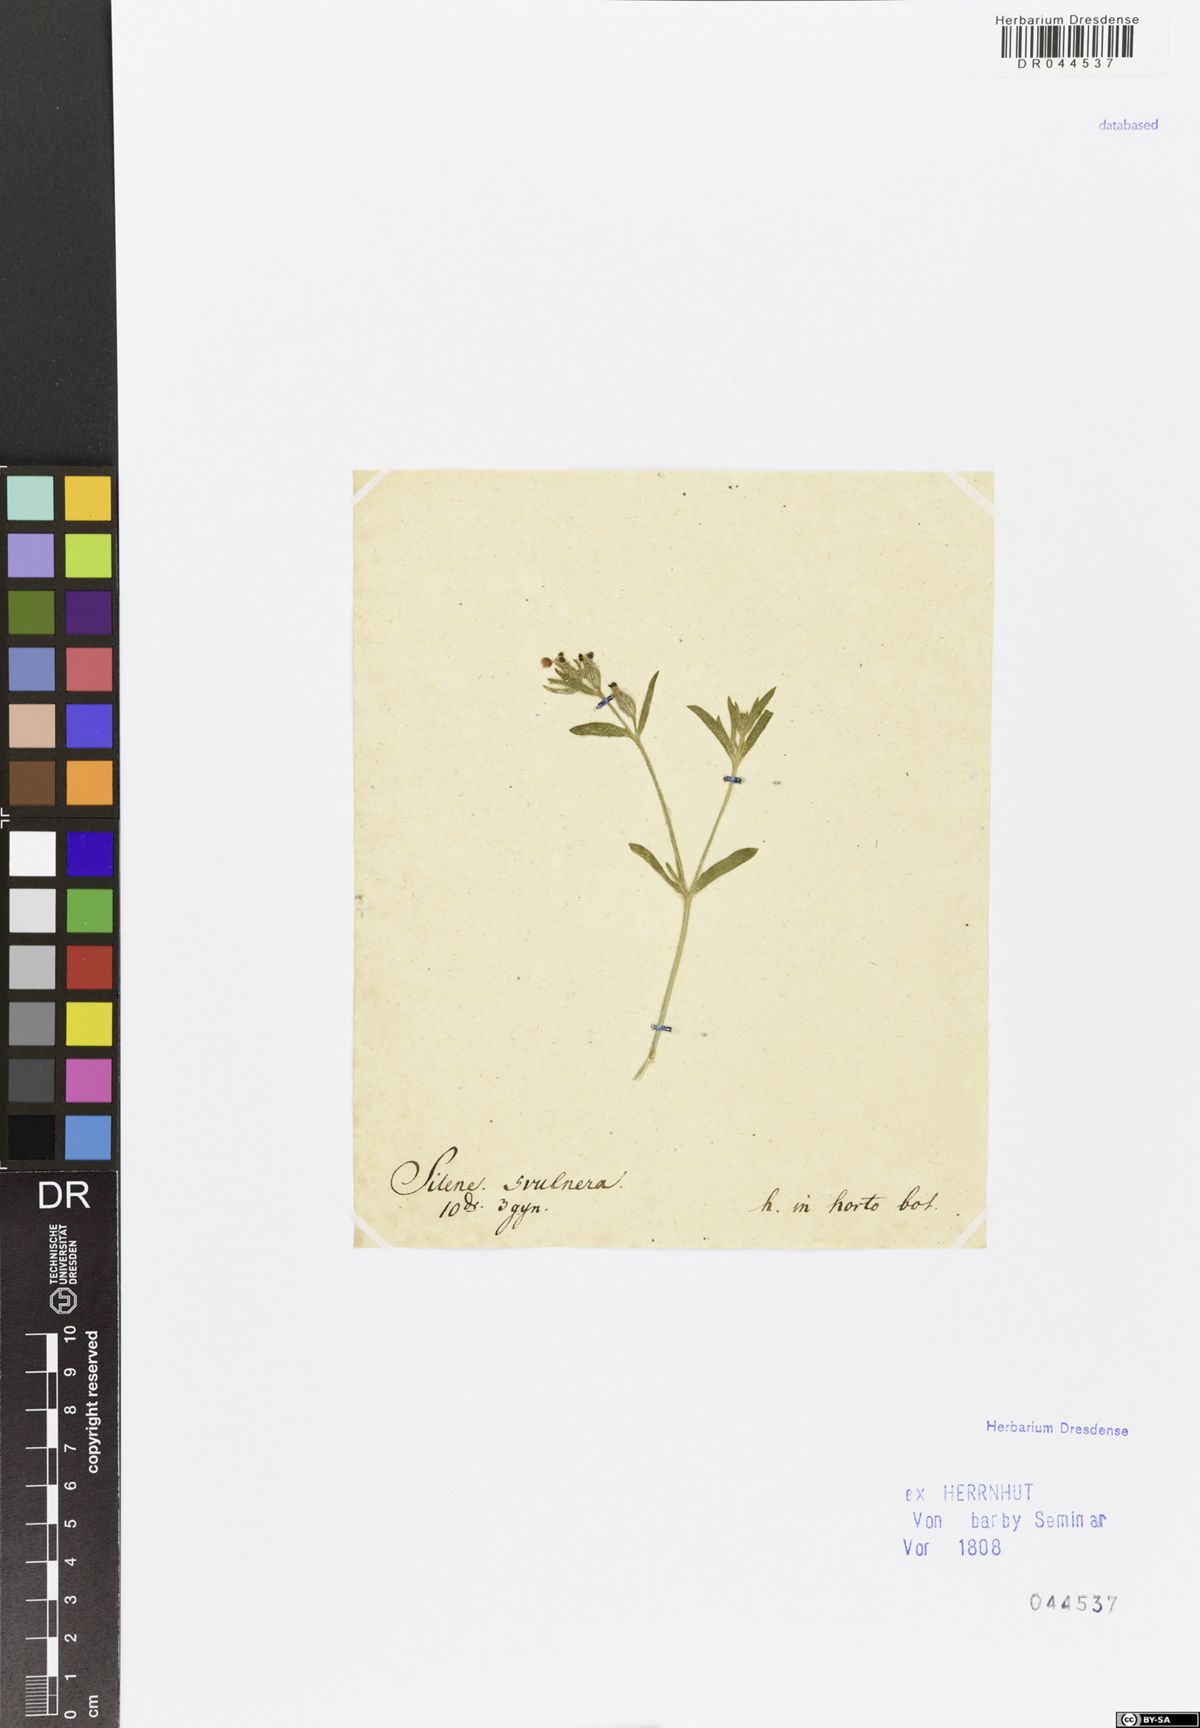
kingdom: Plantae
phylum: Tracheophyta
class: Magnoliopsida
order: Caryophyllales
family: Caryophyllaceae
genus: Silene
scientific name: Silene
